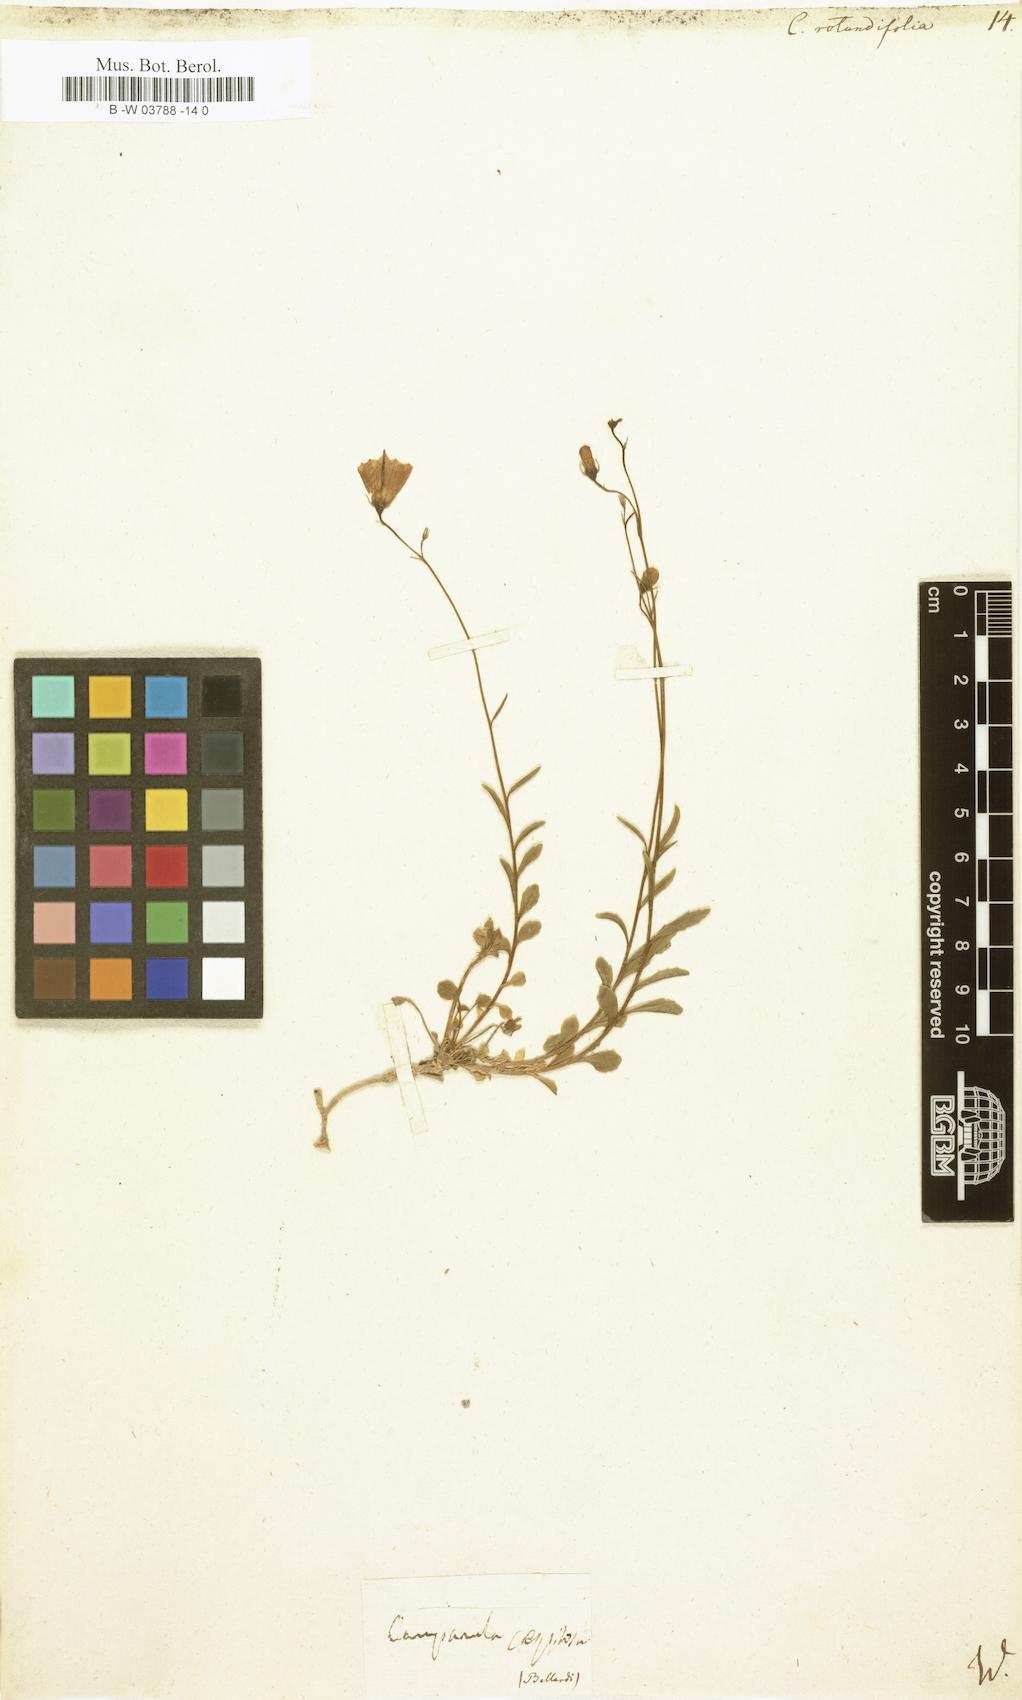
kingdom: Plantae
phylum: Tracheophyta
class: Magnoliopsida
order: Asterales
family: Campanulaceae
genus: Campanula
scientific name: Campanula rotundifolia
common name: Harebell
